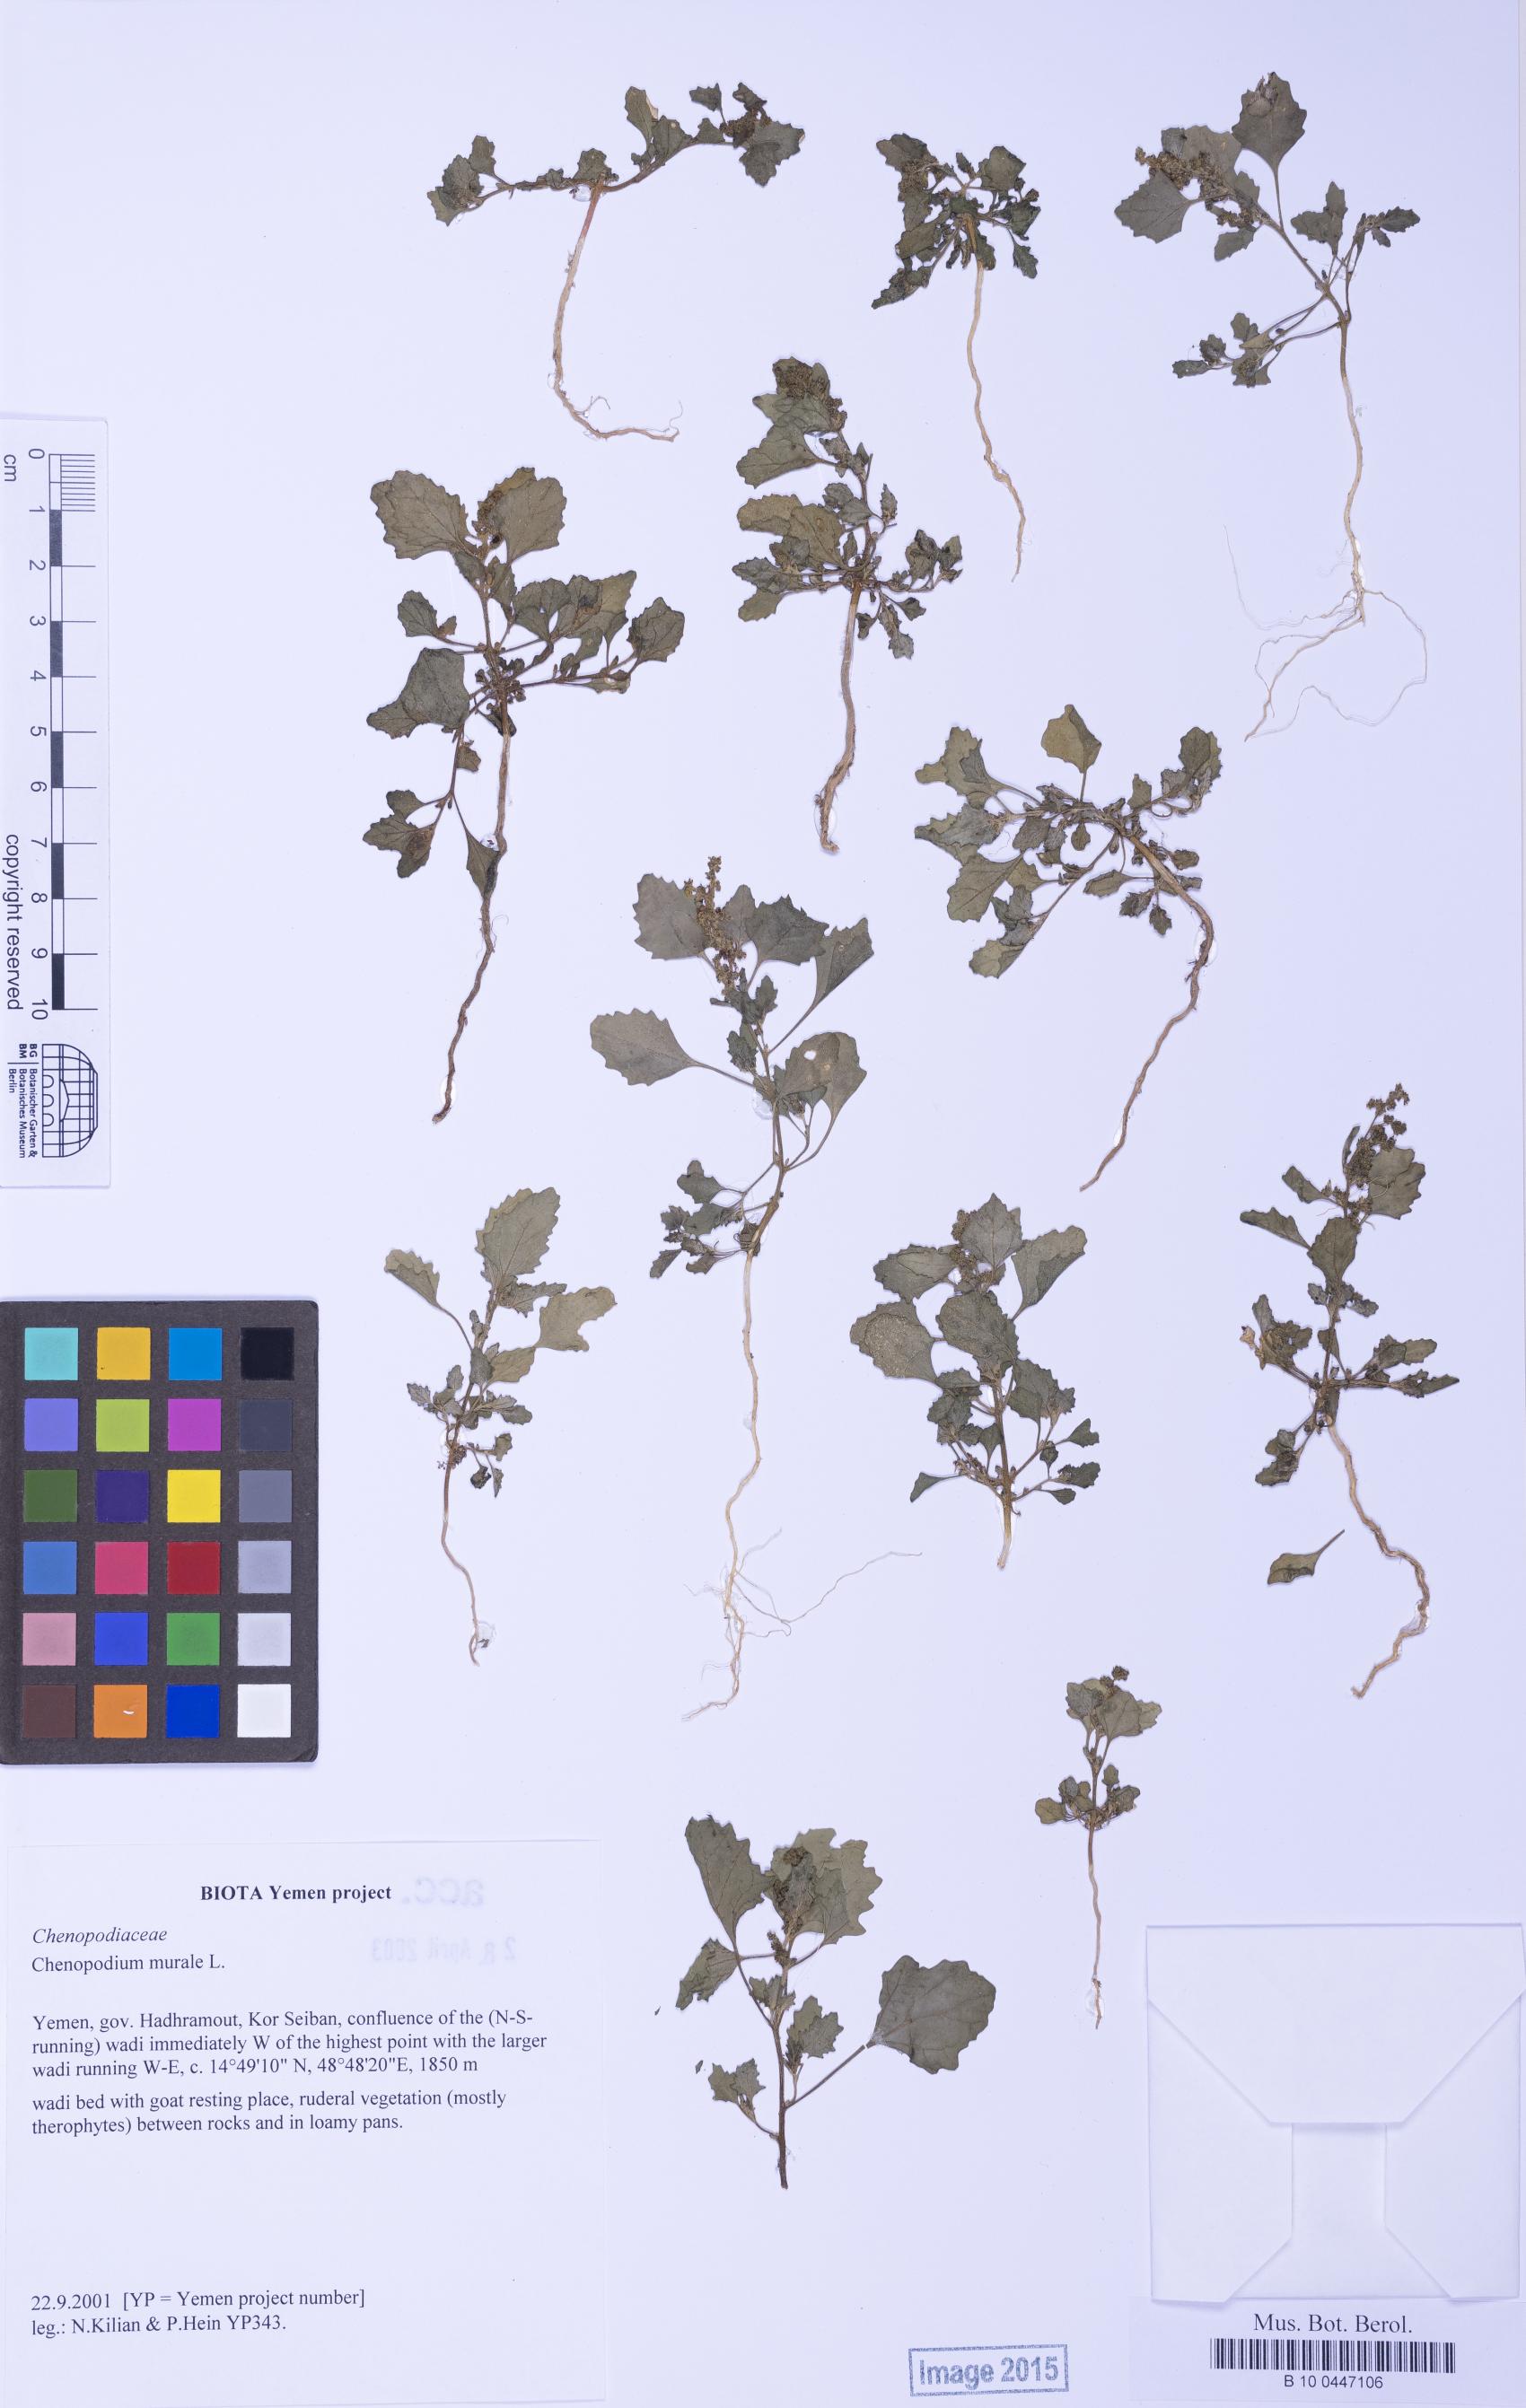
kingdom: Plantae
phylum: Tracheophyta
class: Magnoliopsida
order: Caryophyllales
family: Amaranthaceae
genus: Chenopodiastrum
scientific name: Chenopodiastrum murale
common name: Sowbane
